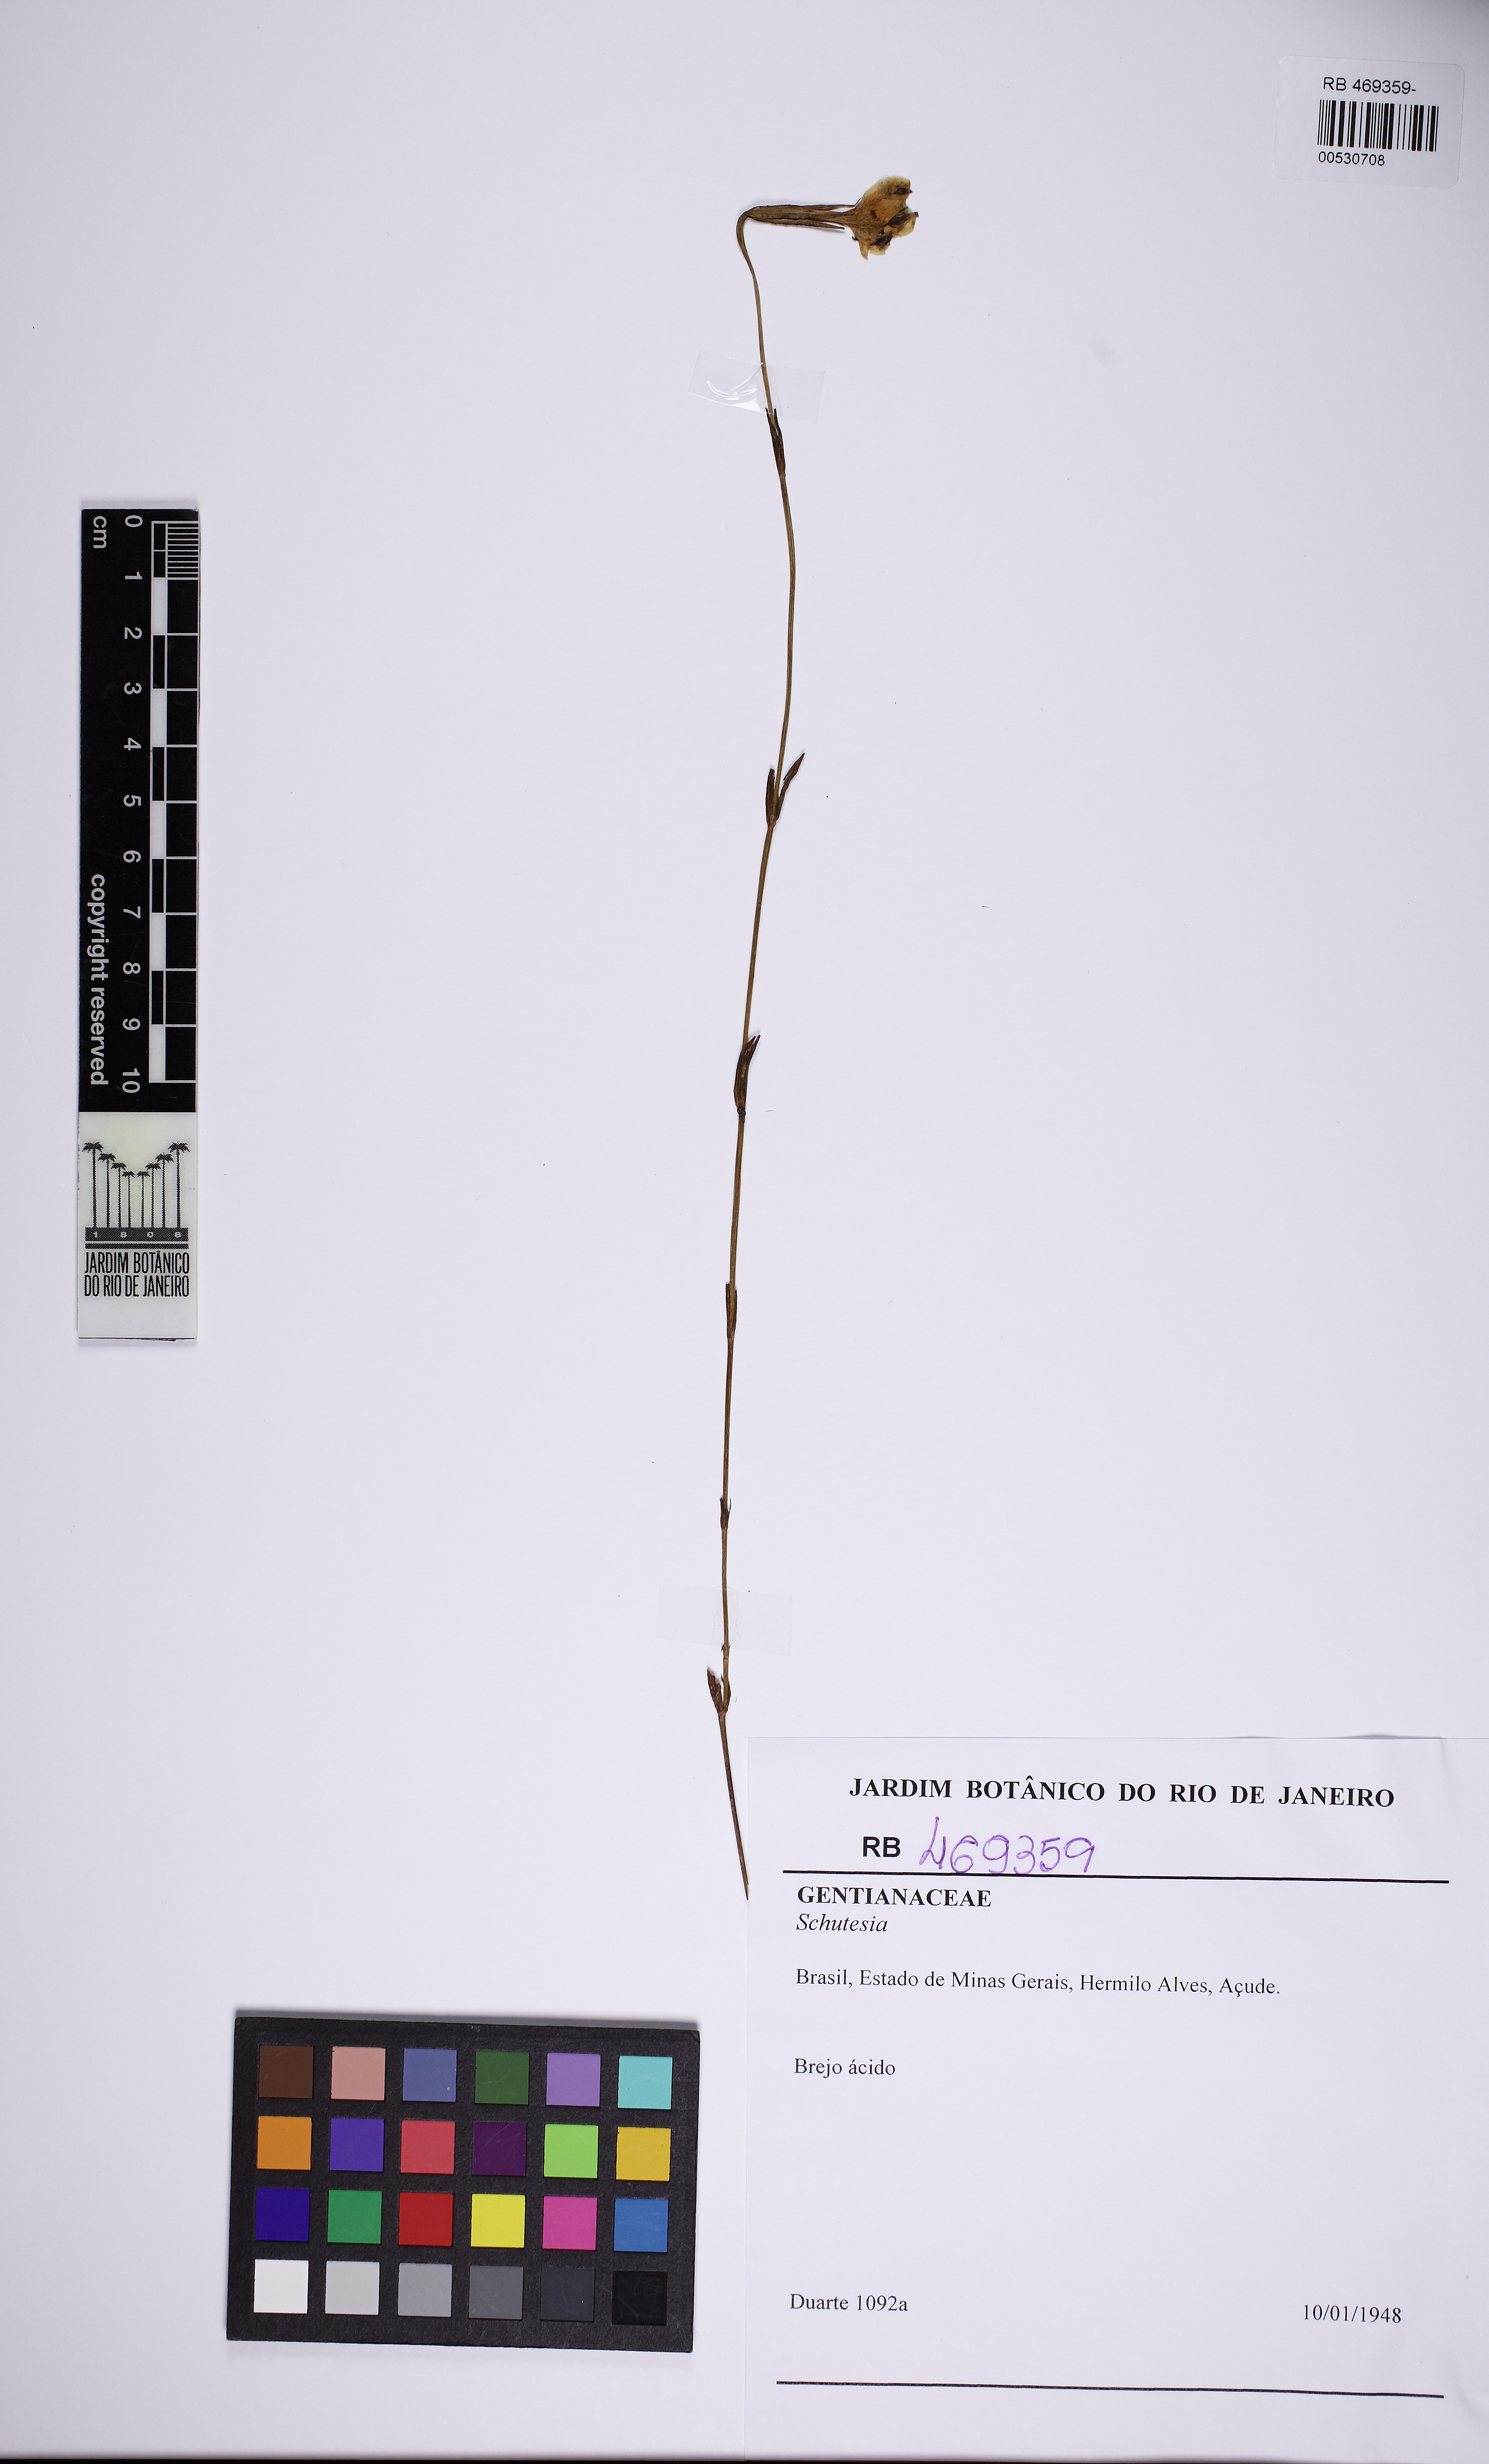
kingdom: Plantae
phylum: Tracheophyta
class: Magnoliopsida
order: Gentianales
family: Gentianaceae
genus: Schultesia
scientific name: Schultesia
